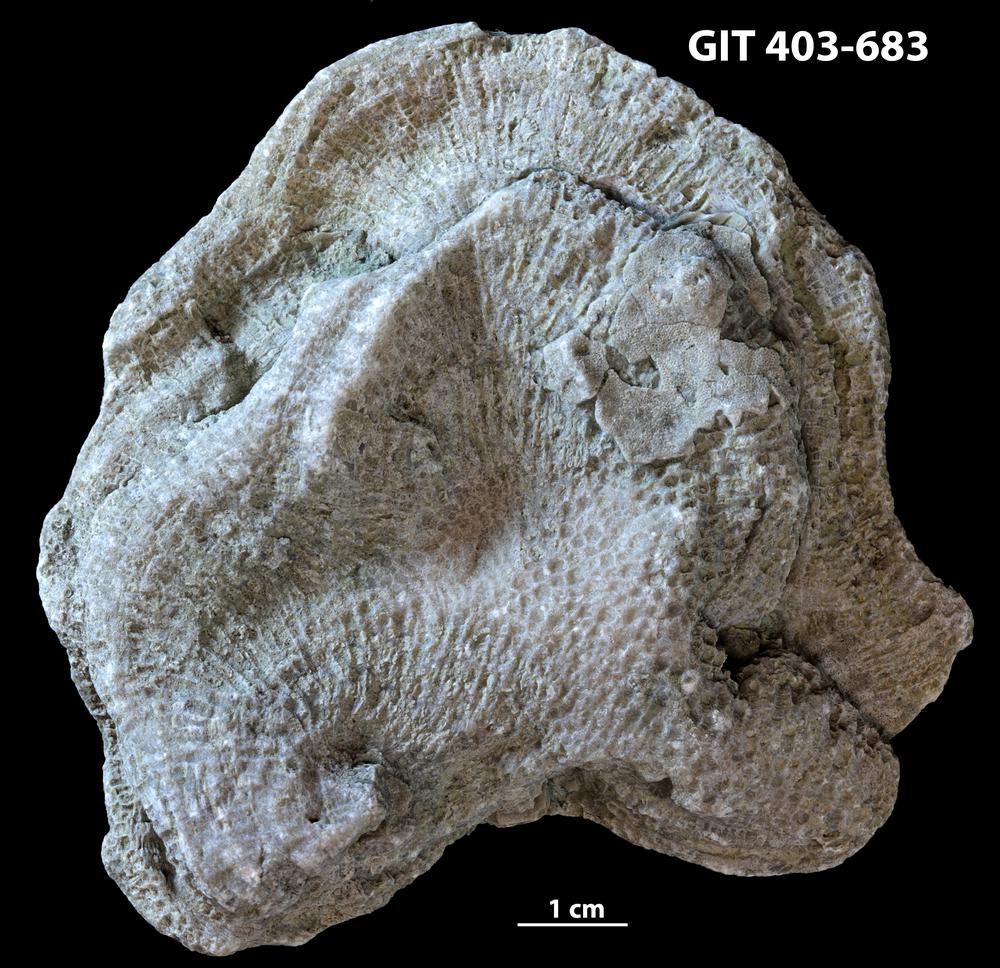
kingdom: Animalia
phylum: Cnidaria
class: Anthozoa
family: Favositidae
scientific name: Favositidae
